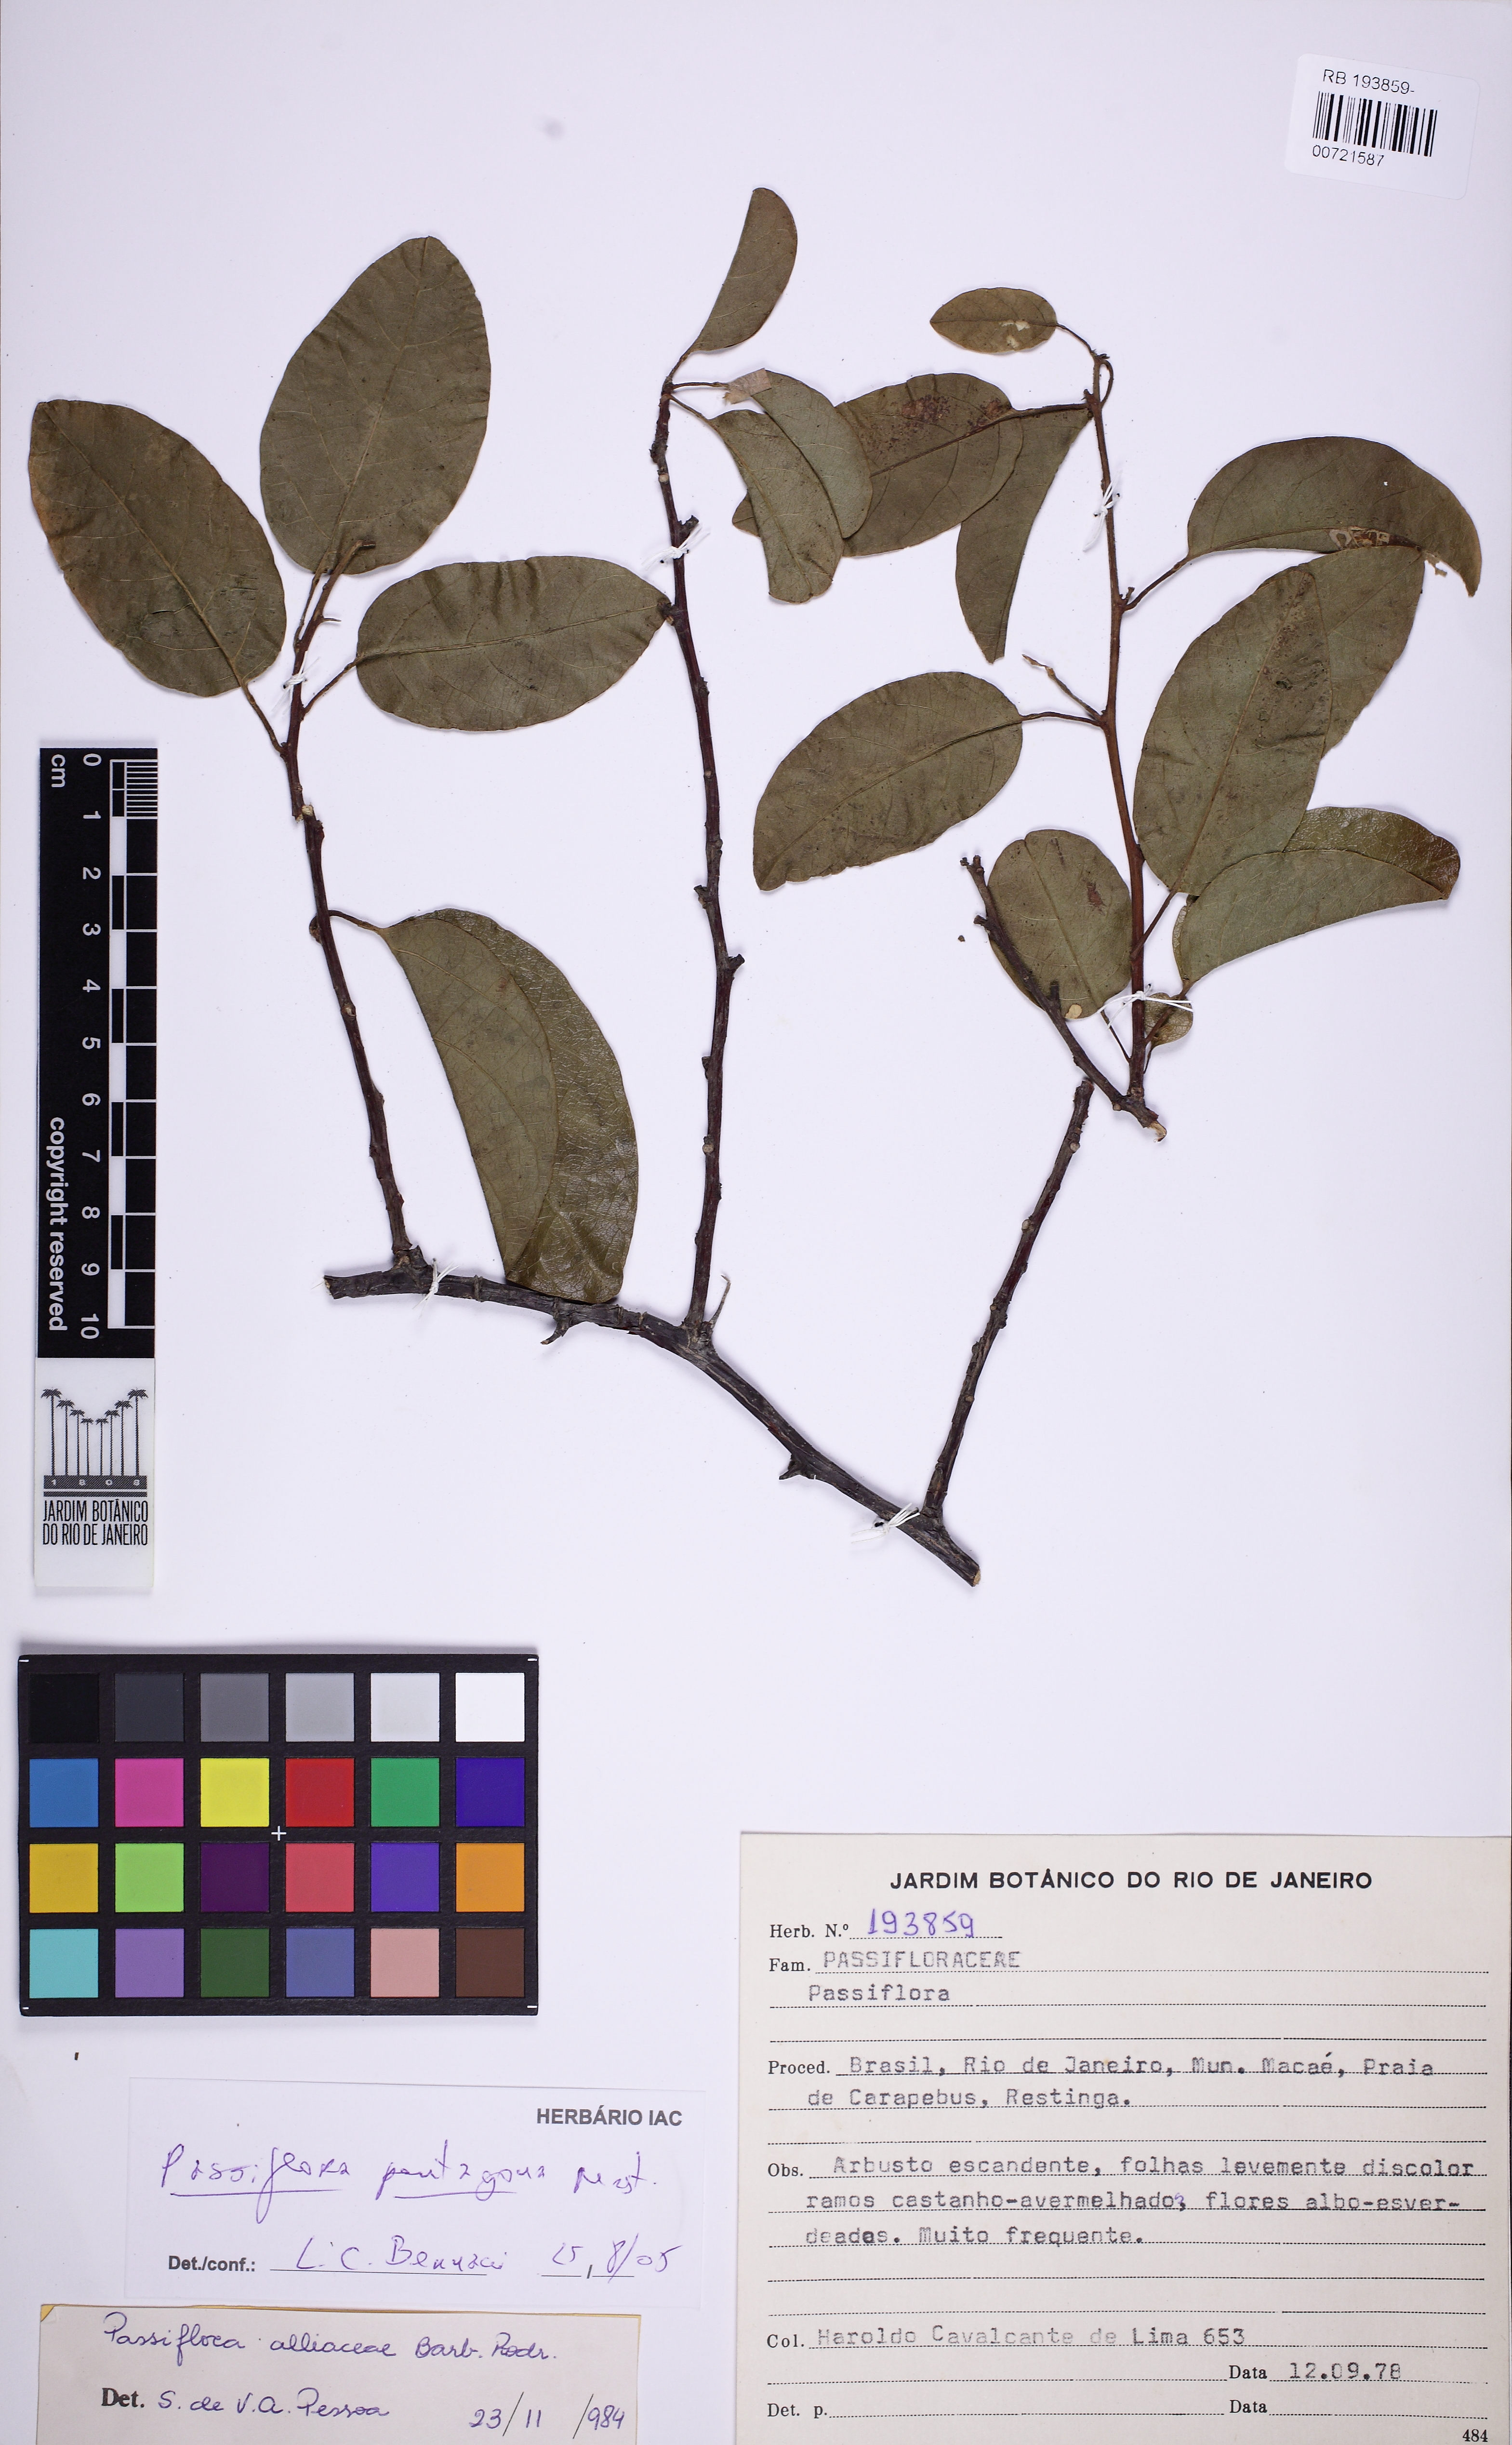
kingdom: Plantae
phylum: Tracheophyta
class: Magnoliopsida
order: Malpighiales
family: Passifloraceae
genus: Passiflora
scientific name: Passiflora pentagona
